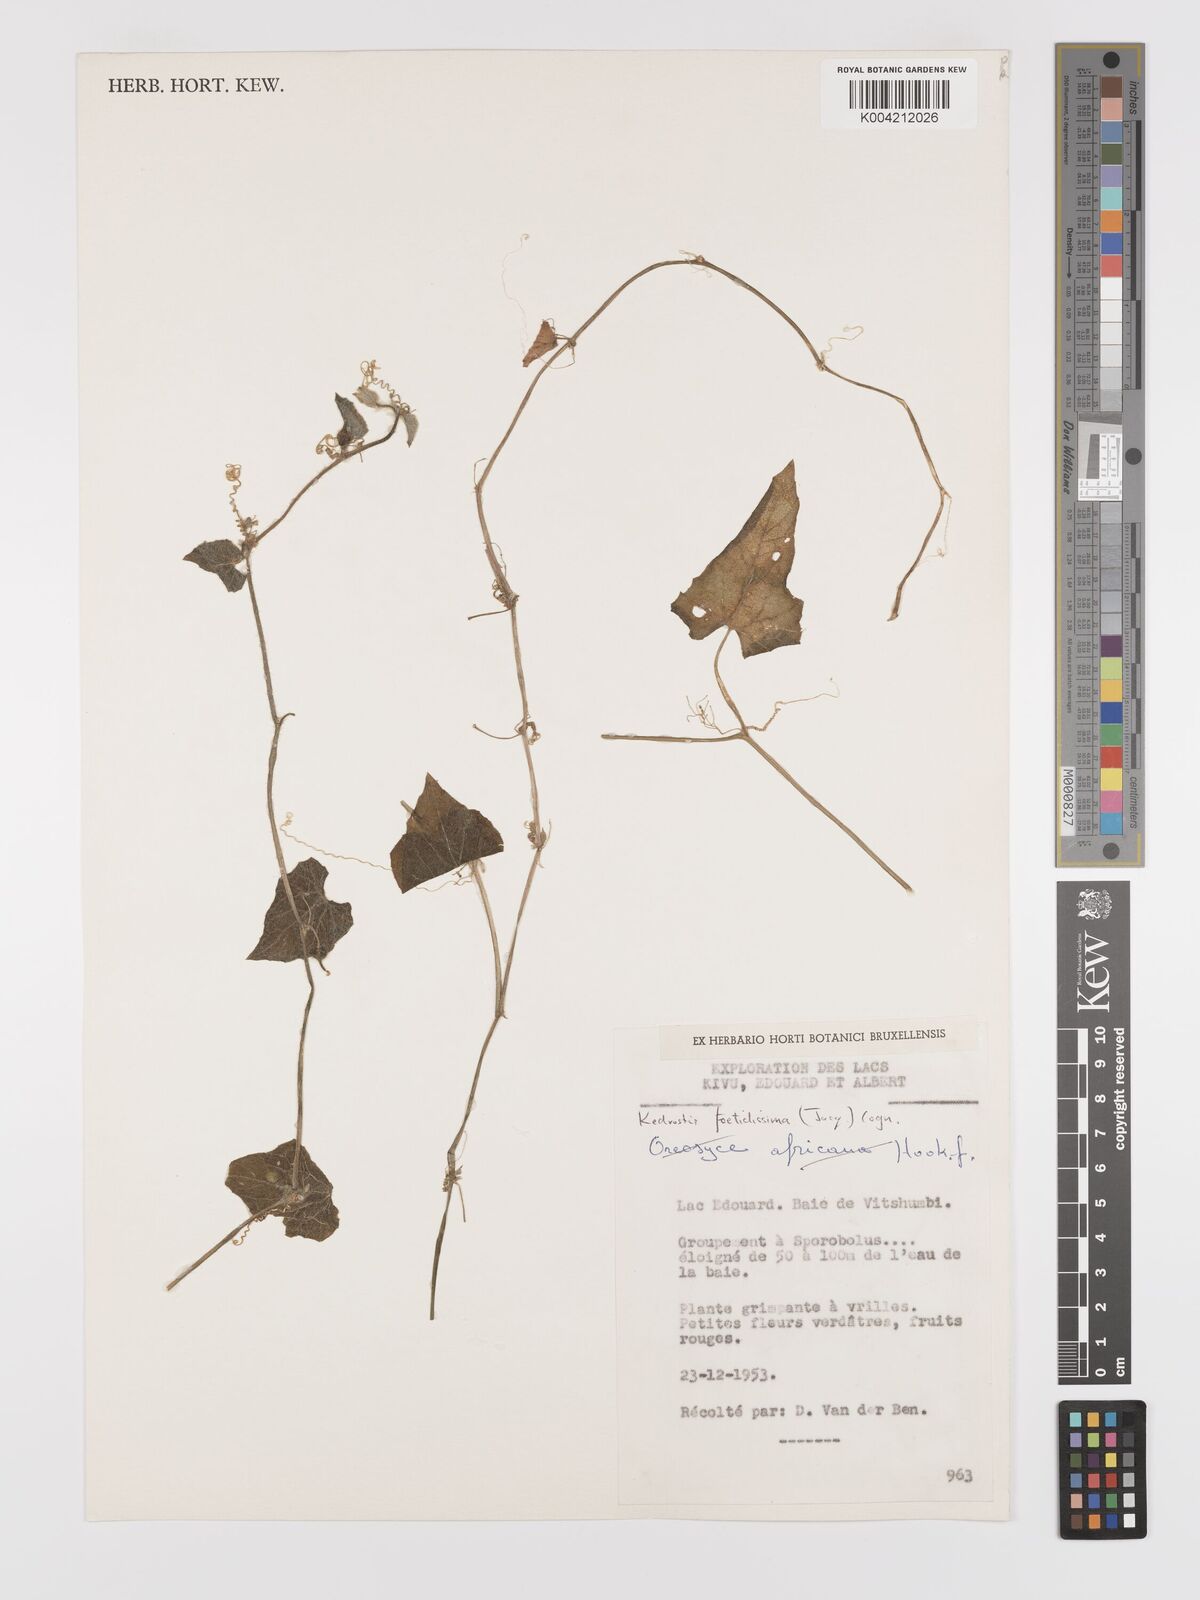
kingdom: Plantae
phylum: Tracheophyta
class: Magnoliopsida
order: Cucurbitales
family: Cucurbitaceae
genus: Kedrostis
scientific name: Kedrostis foetidissima
